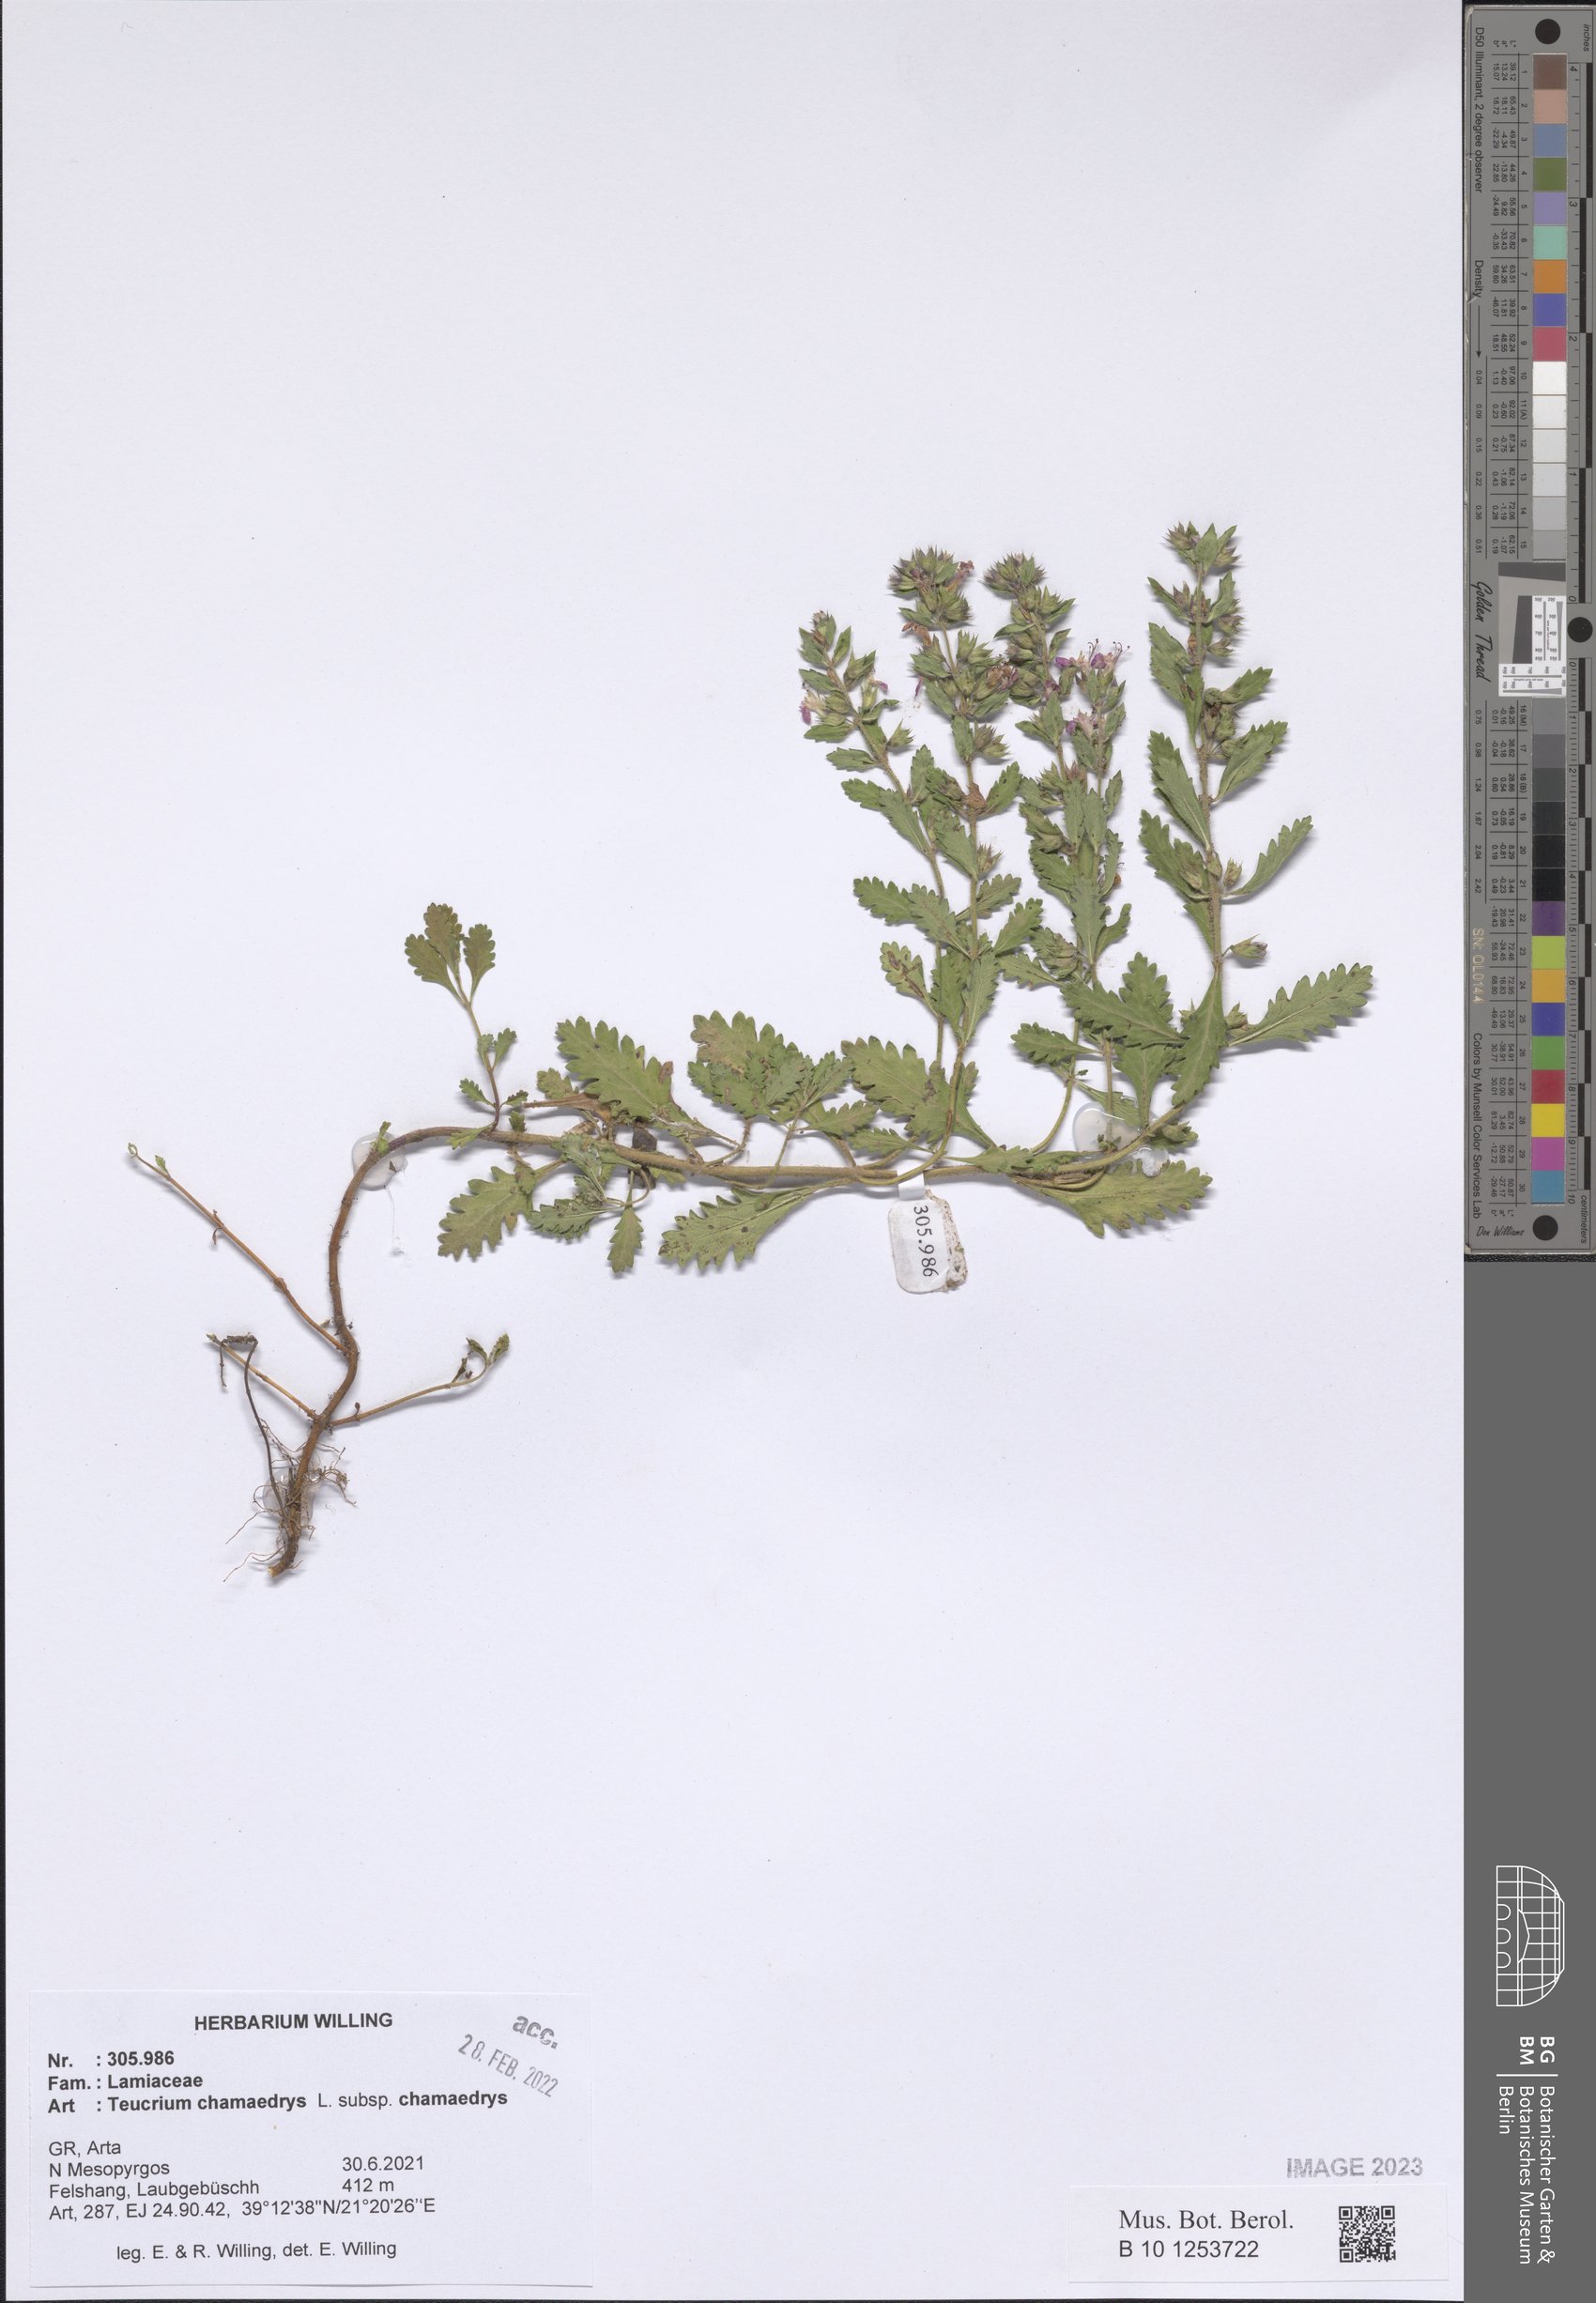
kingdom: Plantae
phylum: Tracheophyta
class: Magnoliopsida
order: Lamiales
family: Lamiaceae
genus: Teucrium
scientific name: Teucrium chamaedrys
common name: Wall germander
